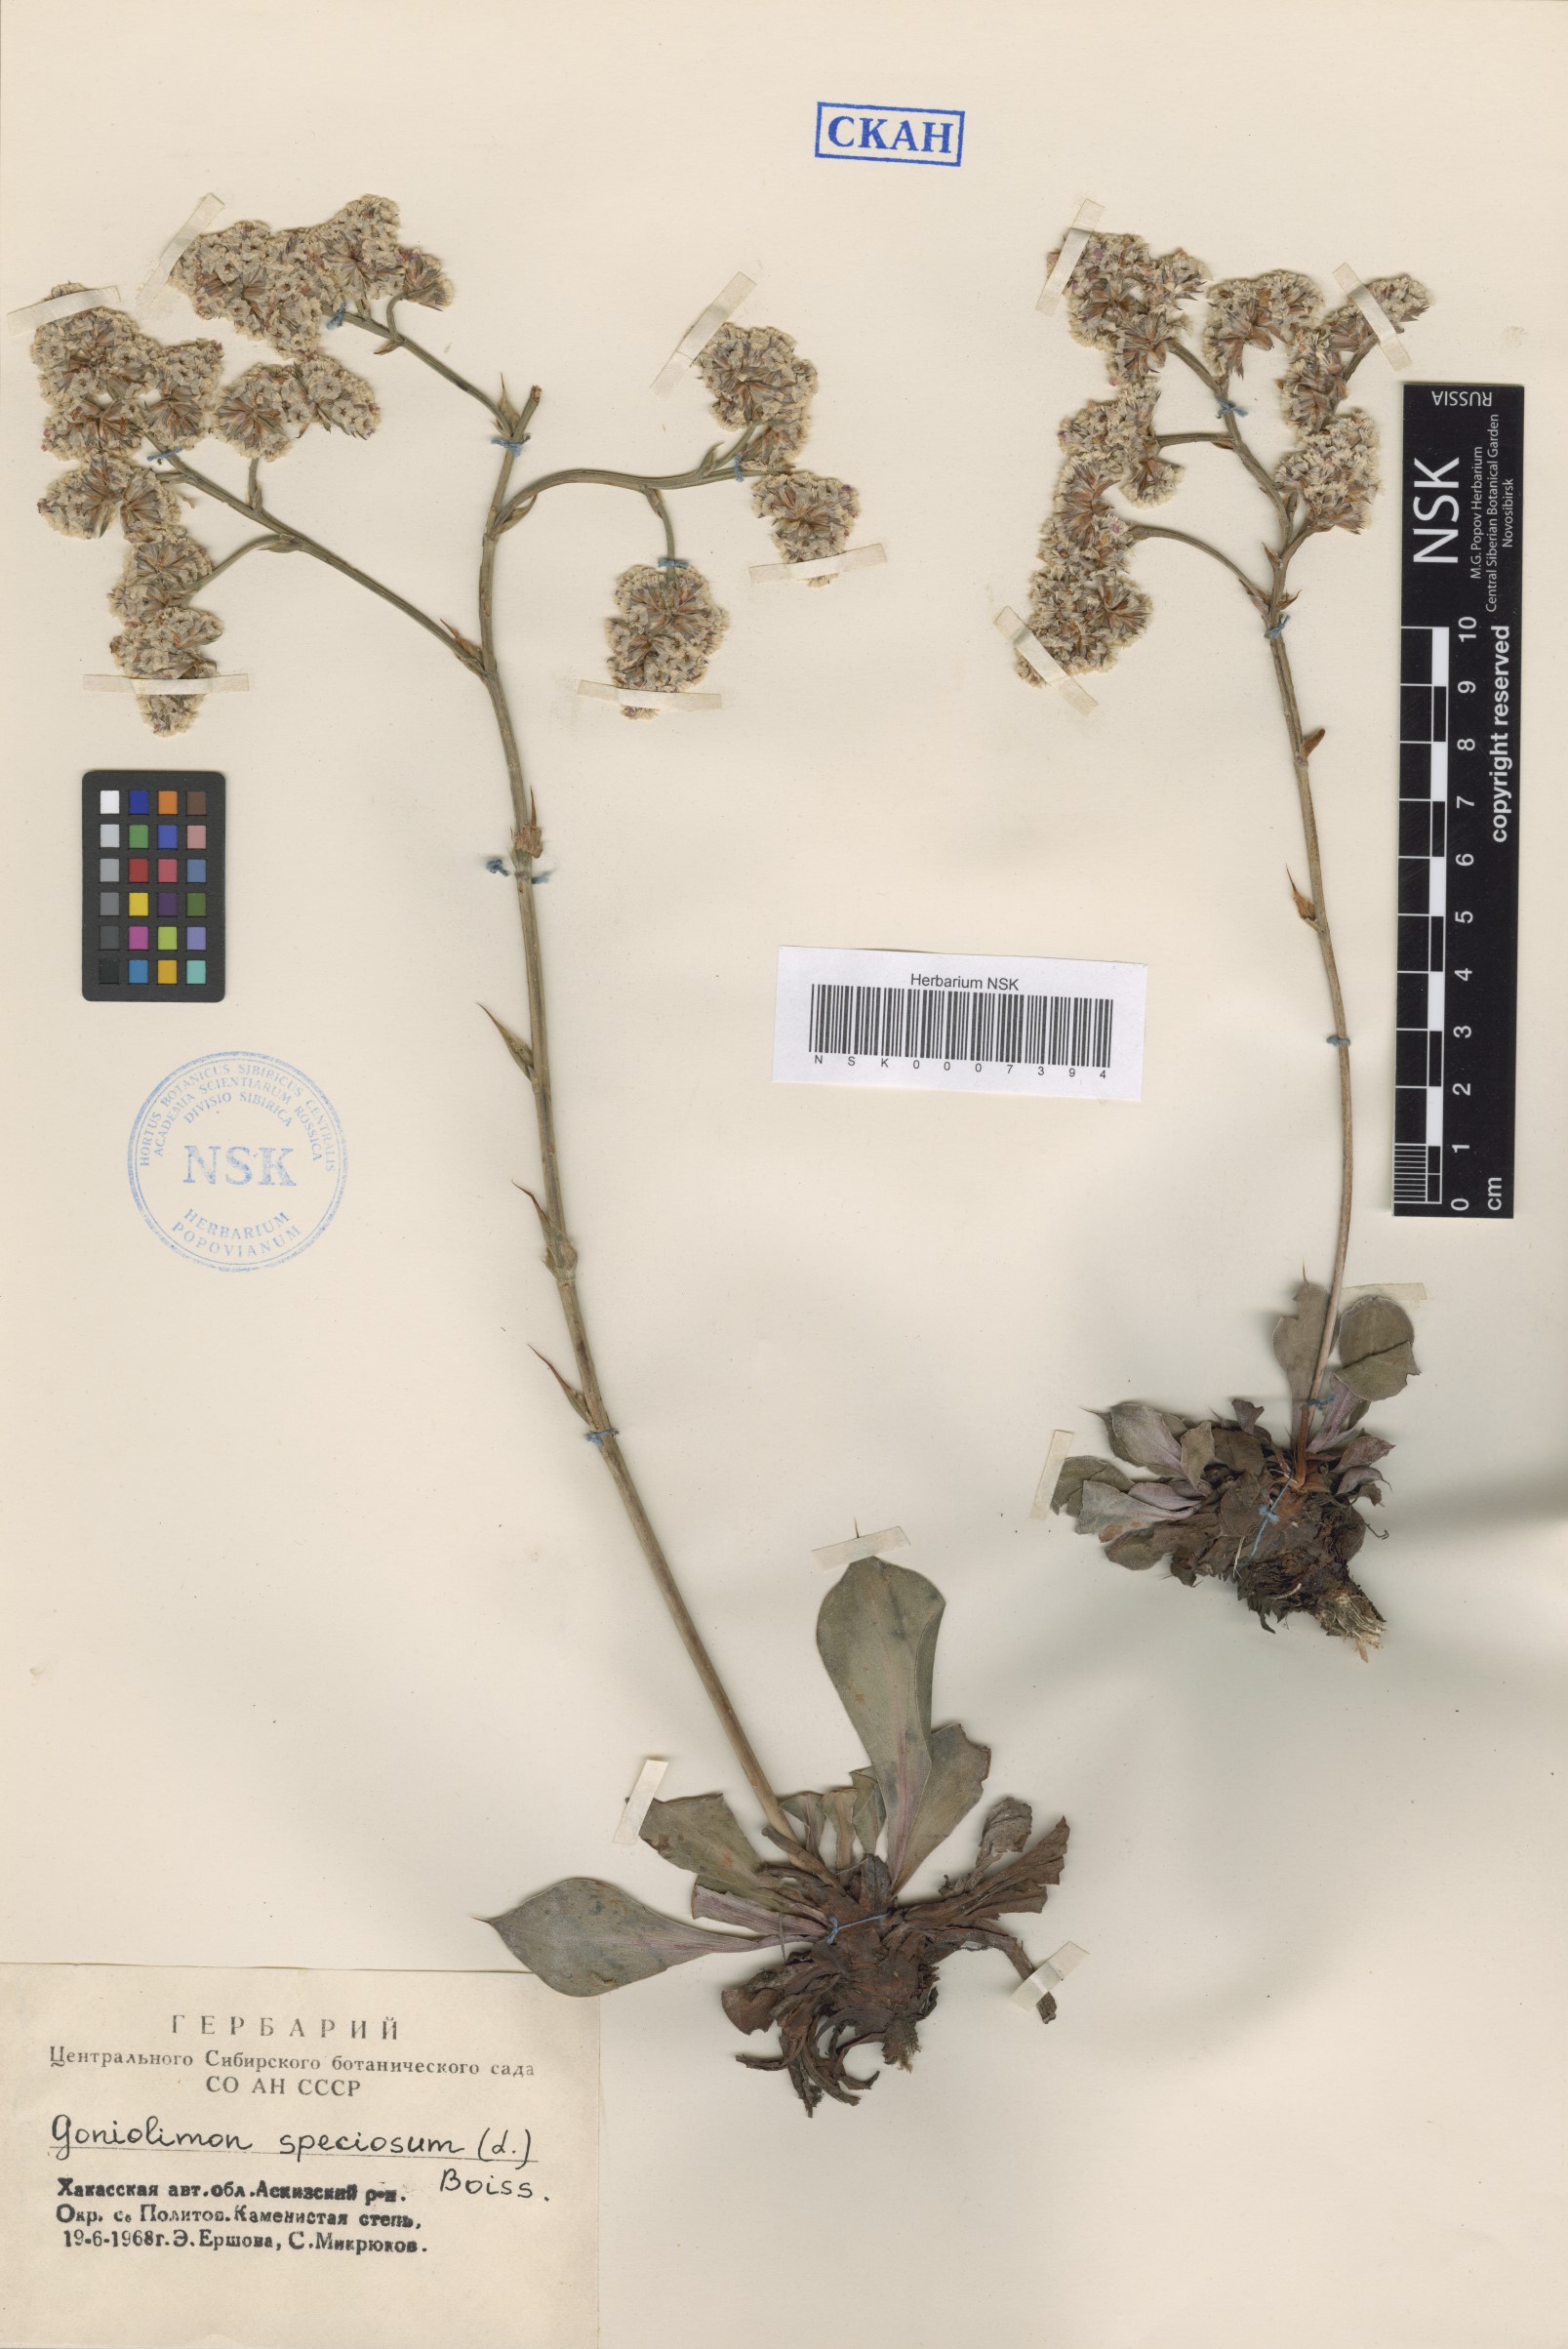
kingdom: Plantae
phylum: Tracheophyta
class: Magnoliopsida
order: Caryophyllales
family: Plumbaginaceae
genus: Goniolimon
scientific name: Goniolimon speciosum
